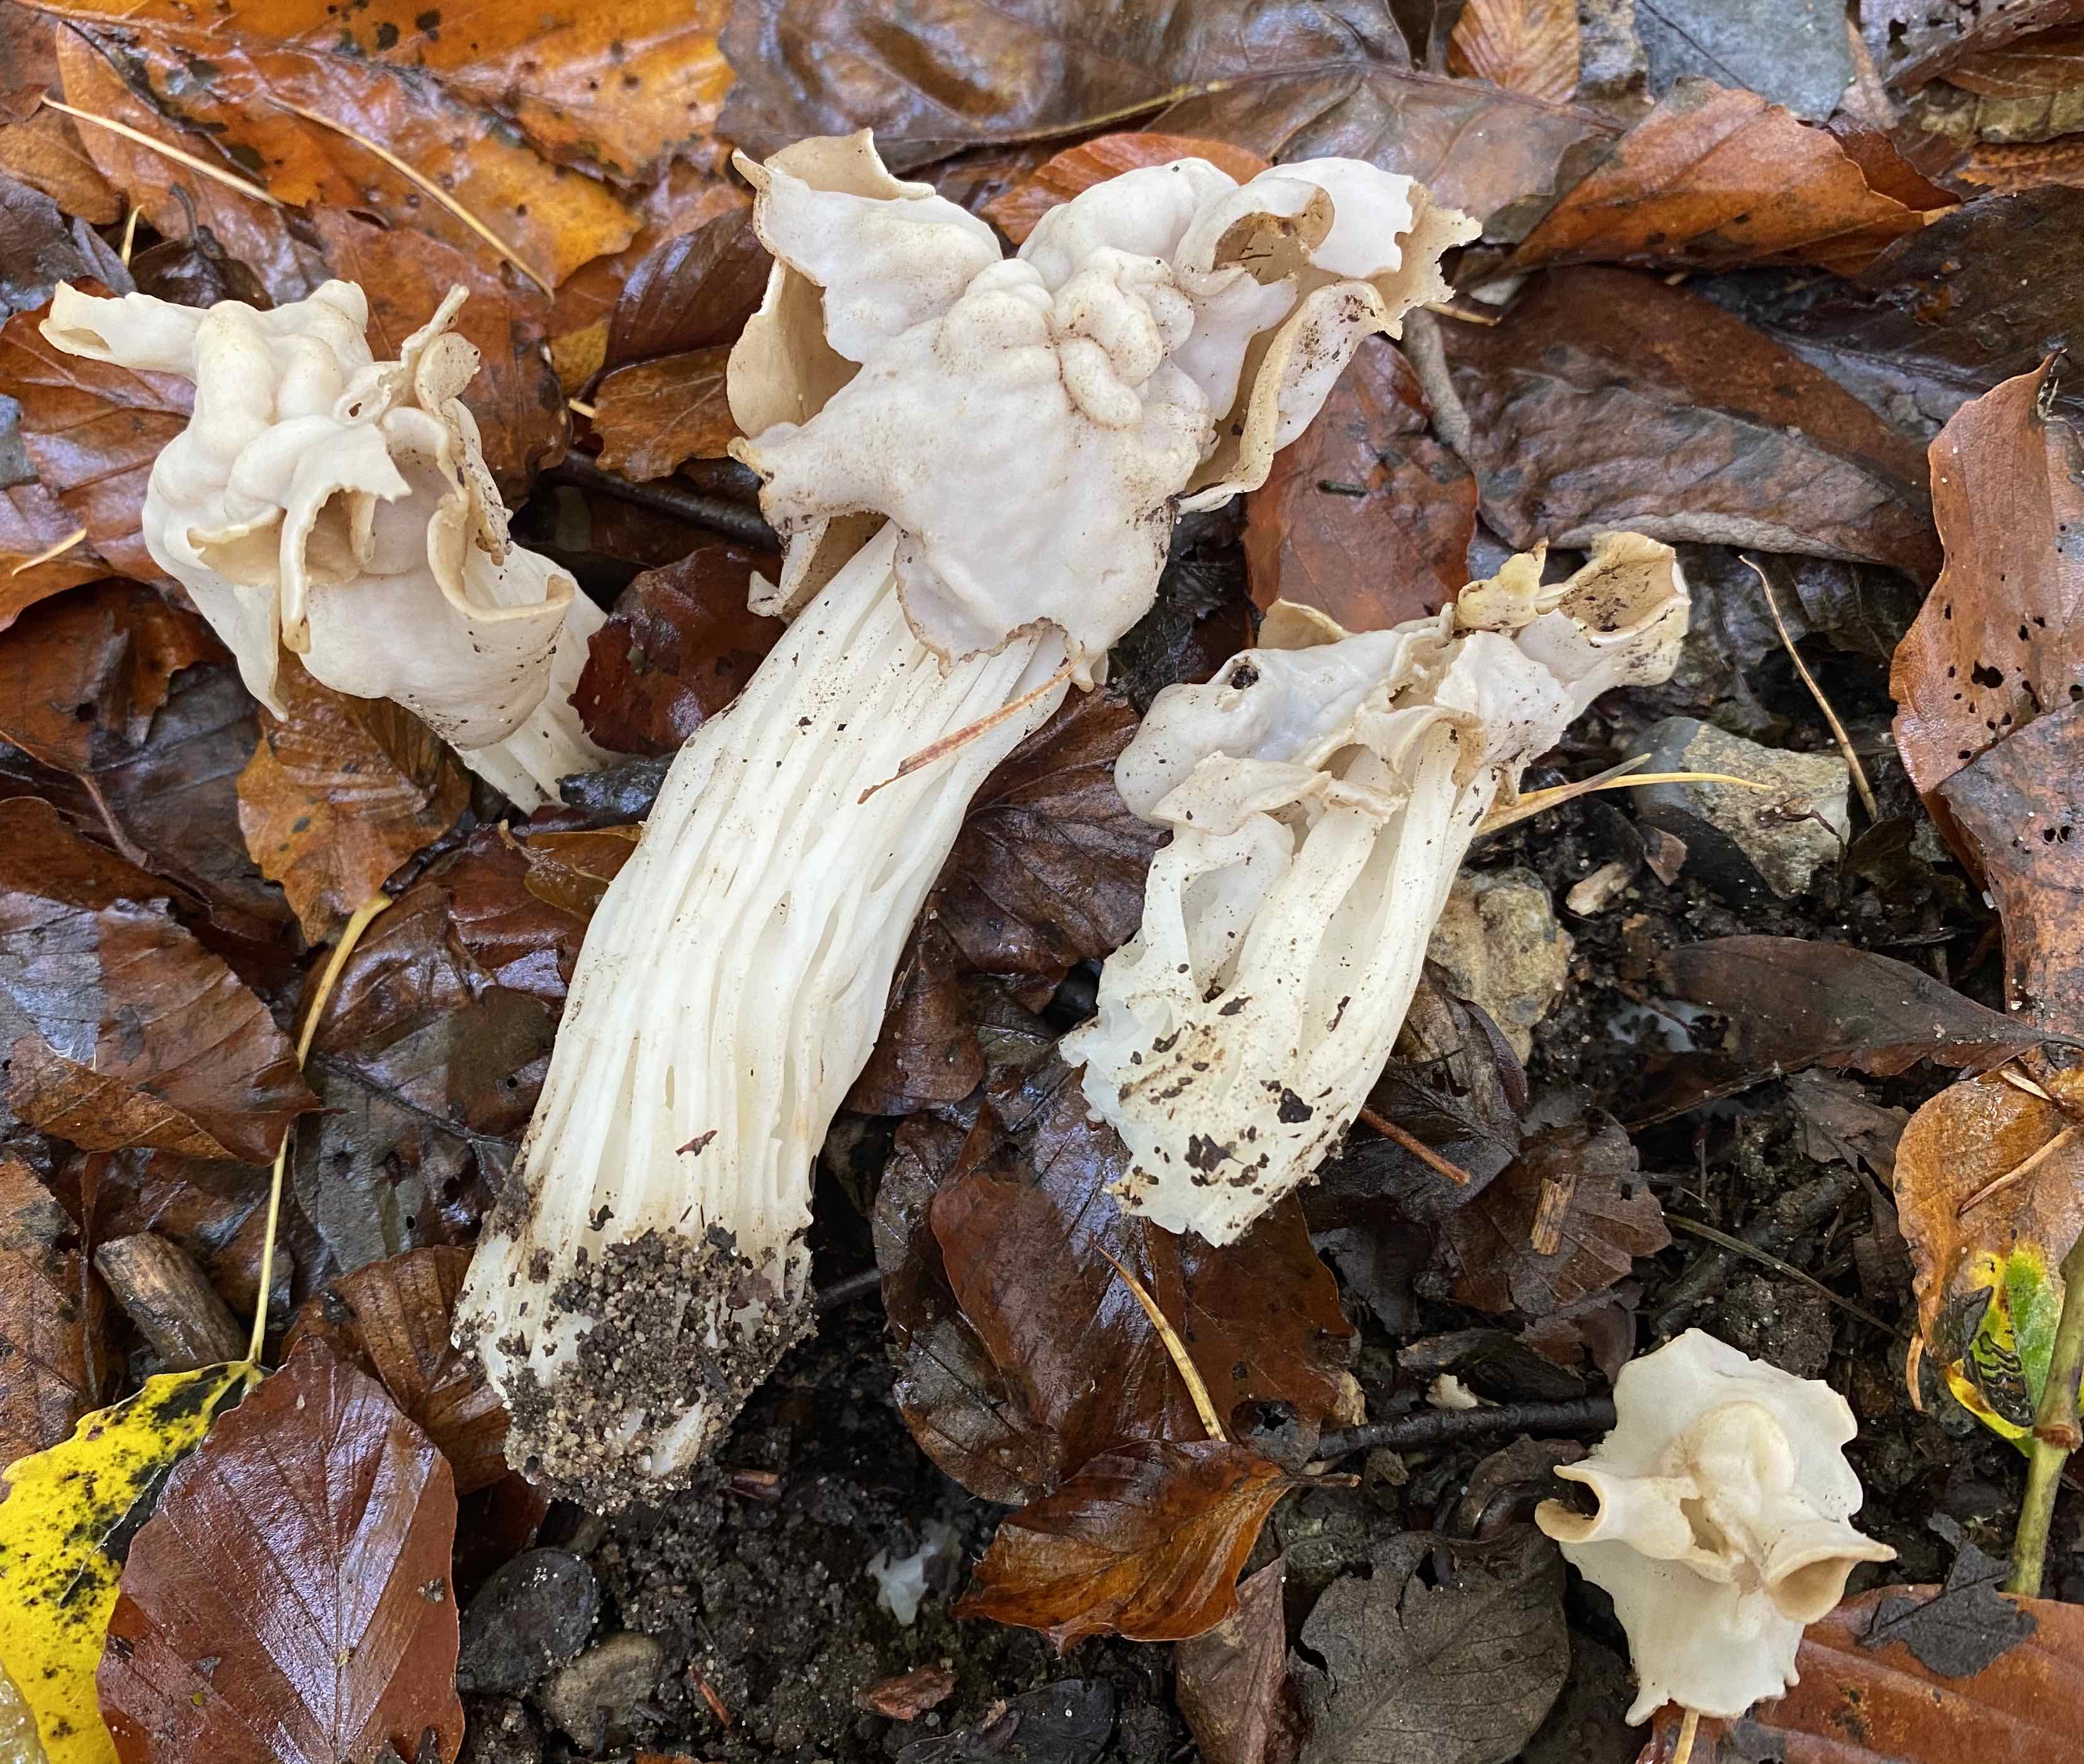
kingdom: Fungi
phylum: Ascomycota
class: Pezizomycetes
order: Pezizales
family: Helvellaceae
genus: Helvella
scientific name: Helvella crispa
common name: kruset foldhat
